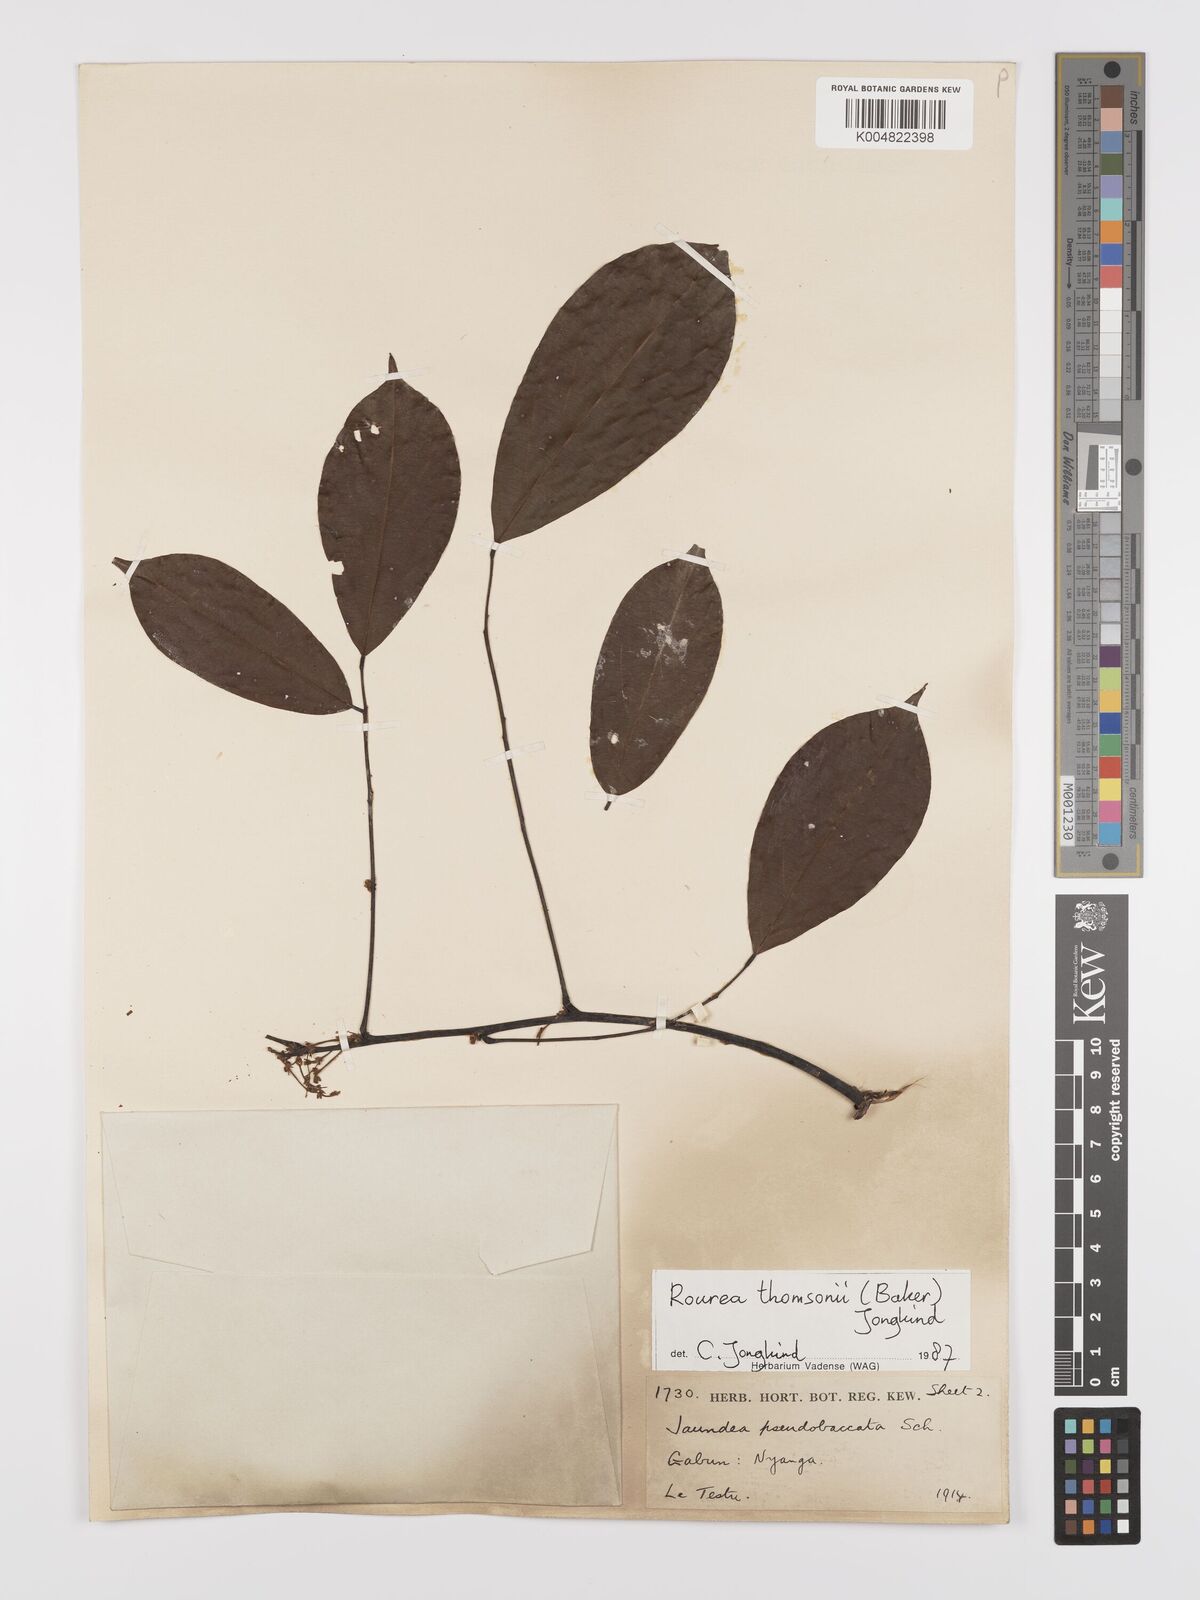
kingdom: Plantae
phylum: Tracheophyta
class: Magnoliopsida
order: Oxalidales
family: Connaraceae
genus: Rourea
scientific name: Rourea pubescens
